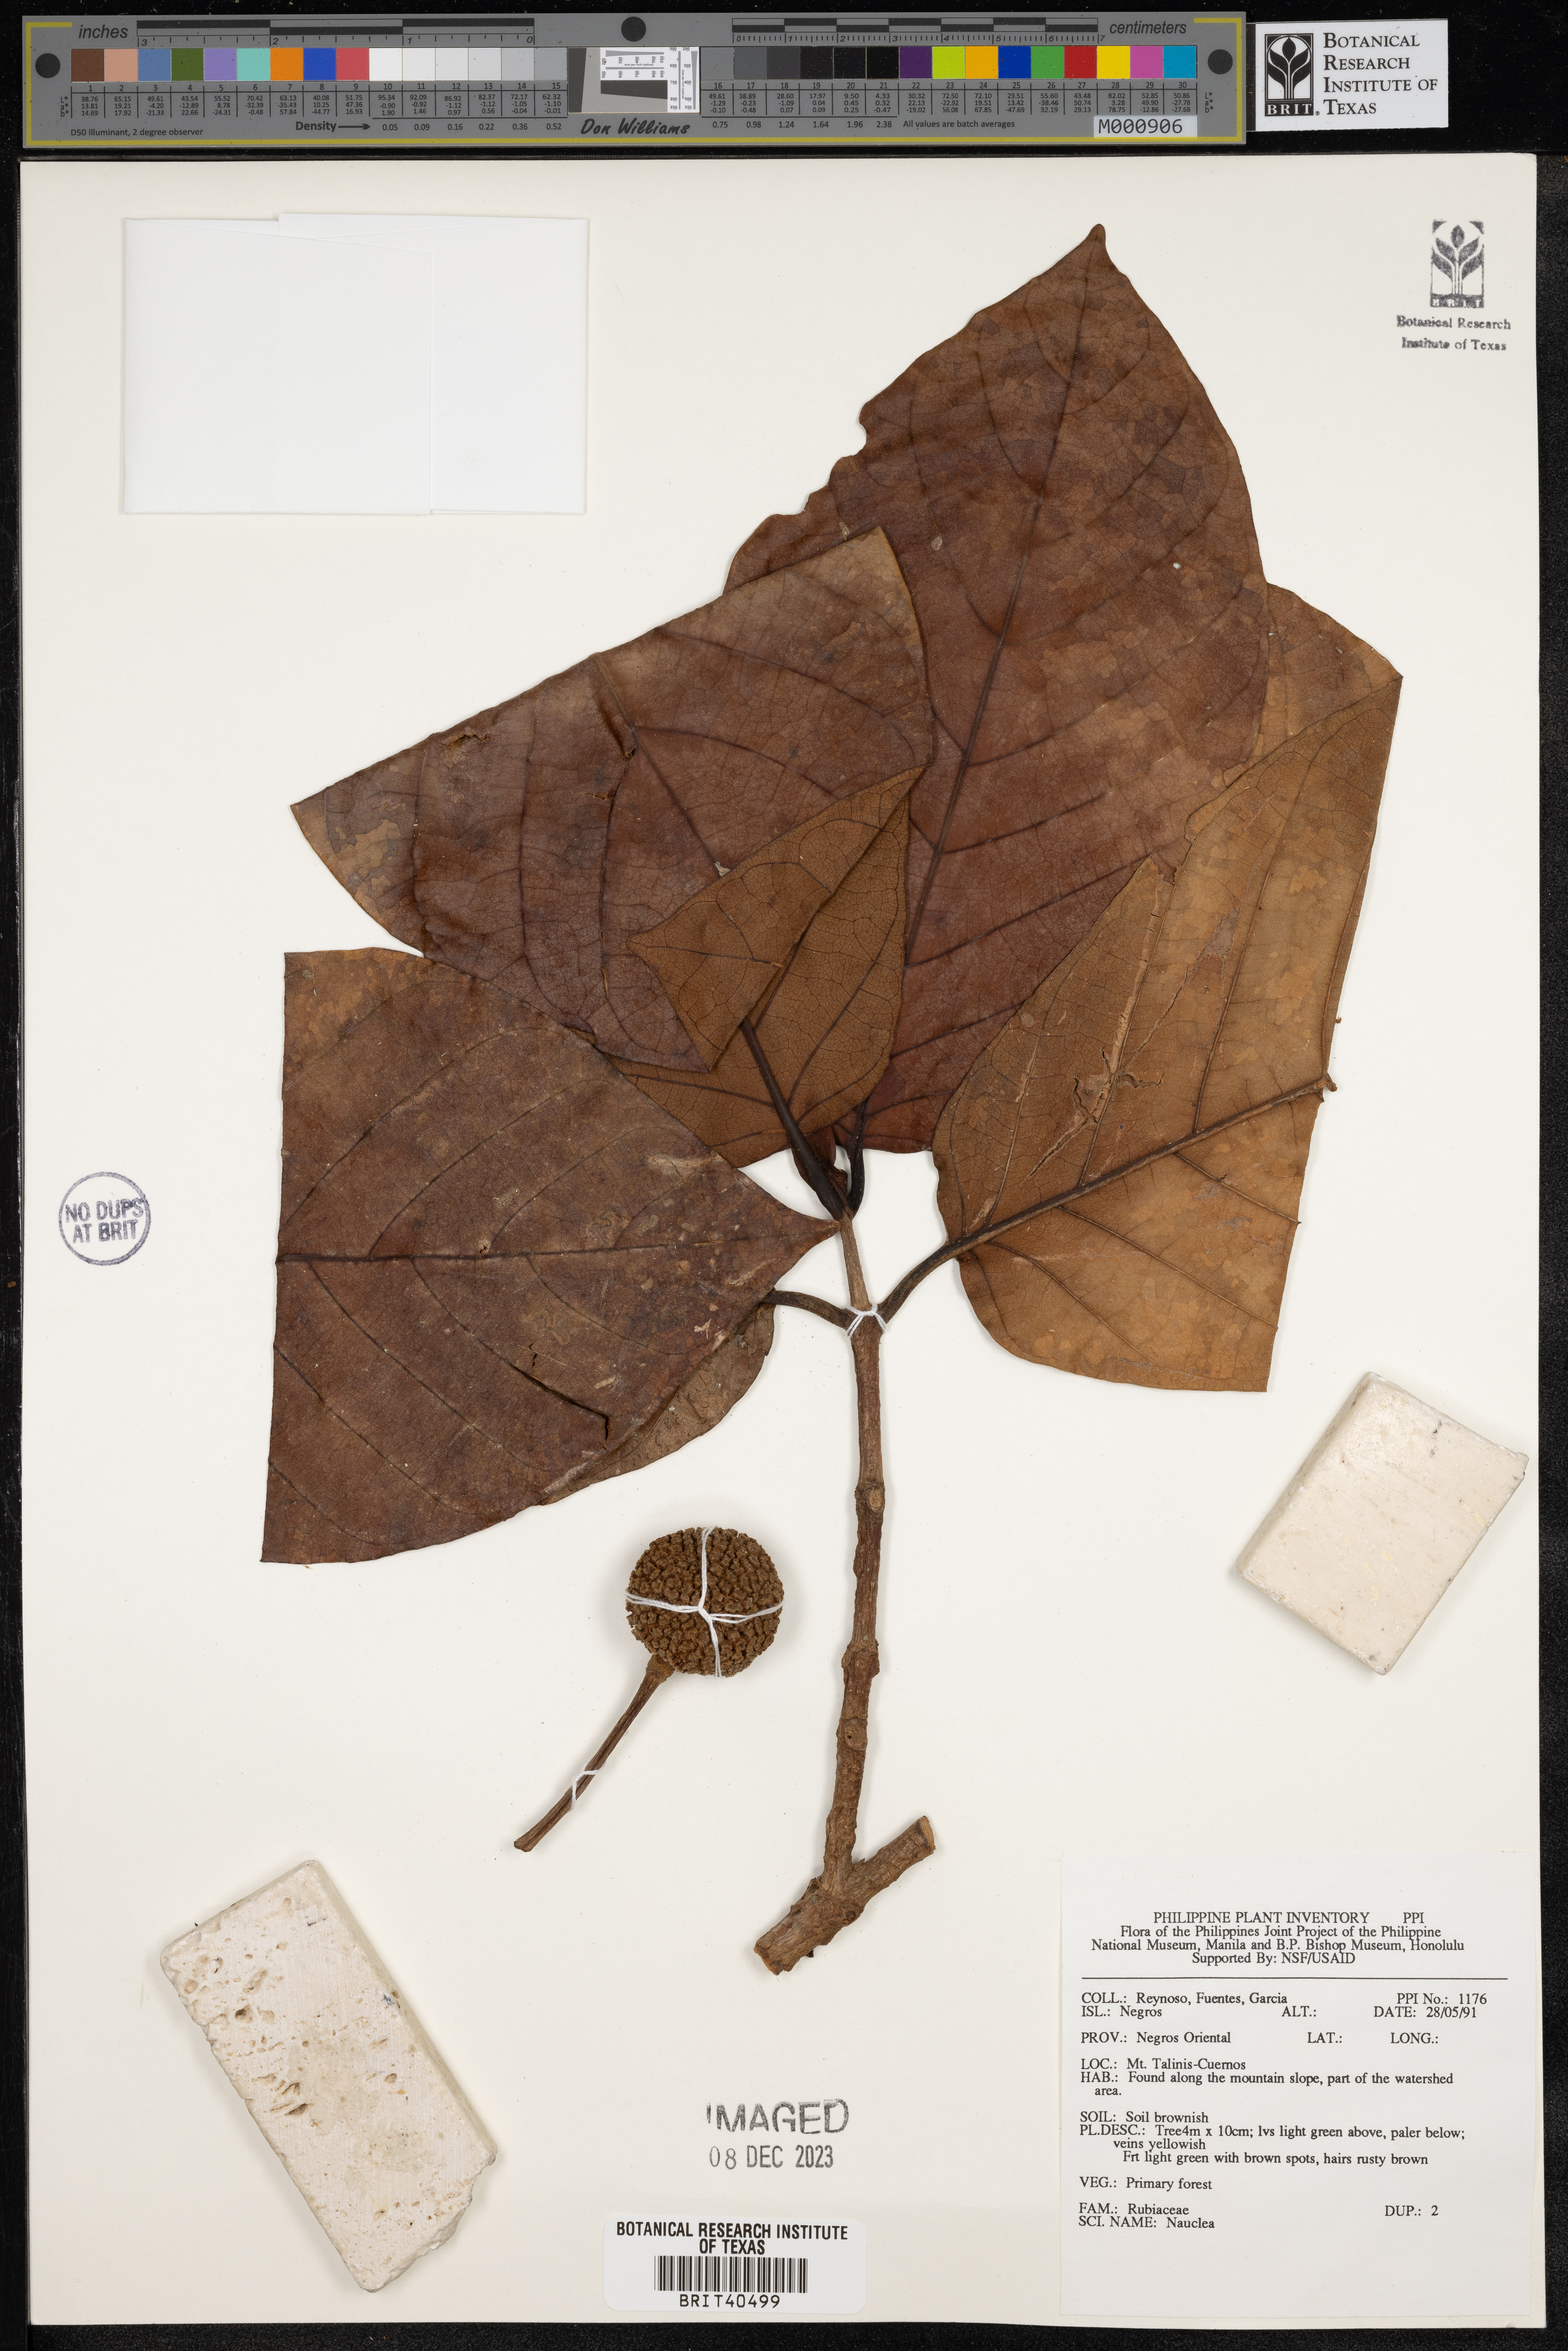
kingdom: Plantae
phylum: Tracheophyta
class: Magnoliopsida
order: Gentianales
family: Rubiaceae
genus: Nauclea
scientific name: Nauclea
